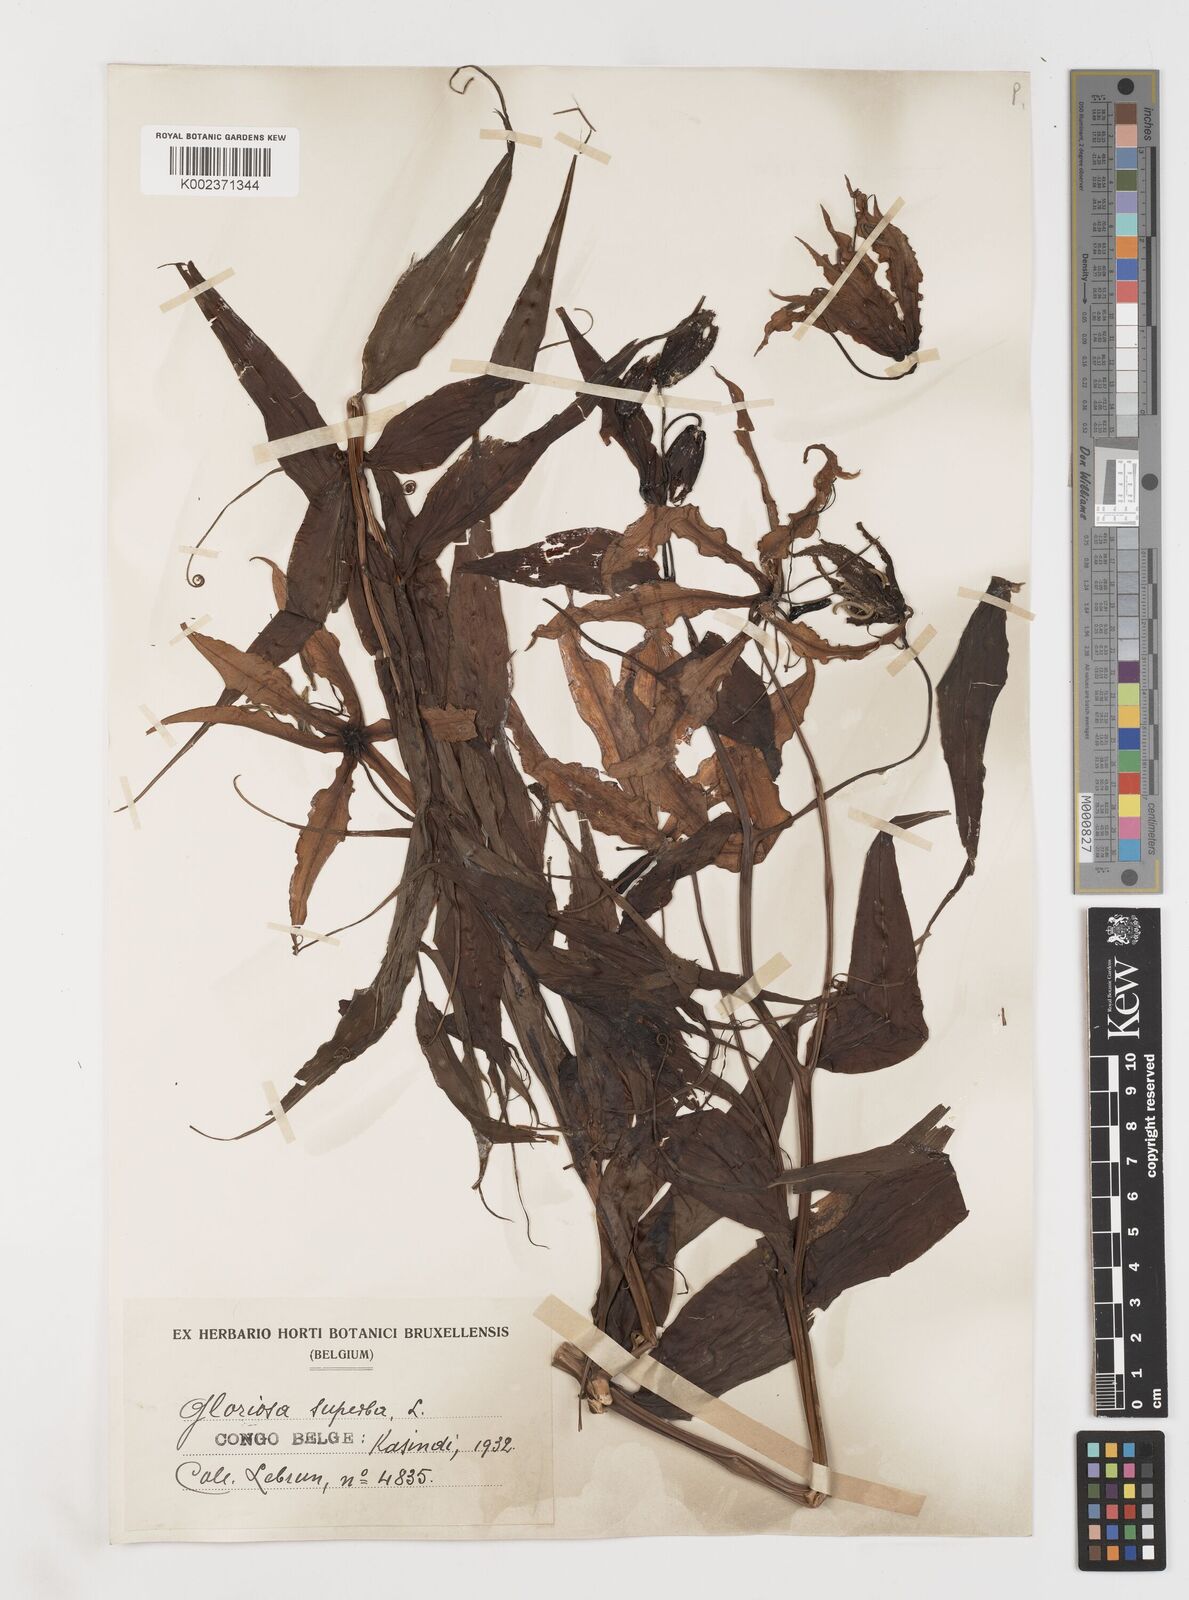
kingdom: Plantae
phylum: Tracheophyta
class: Liliopsida
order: Liliales
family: Colchicaceae
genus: Gloriosa
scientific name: Gloriosa superba
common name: Flame lily
